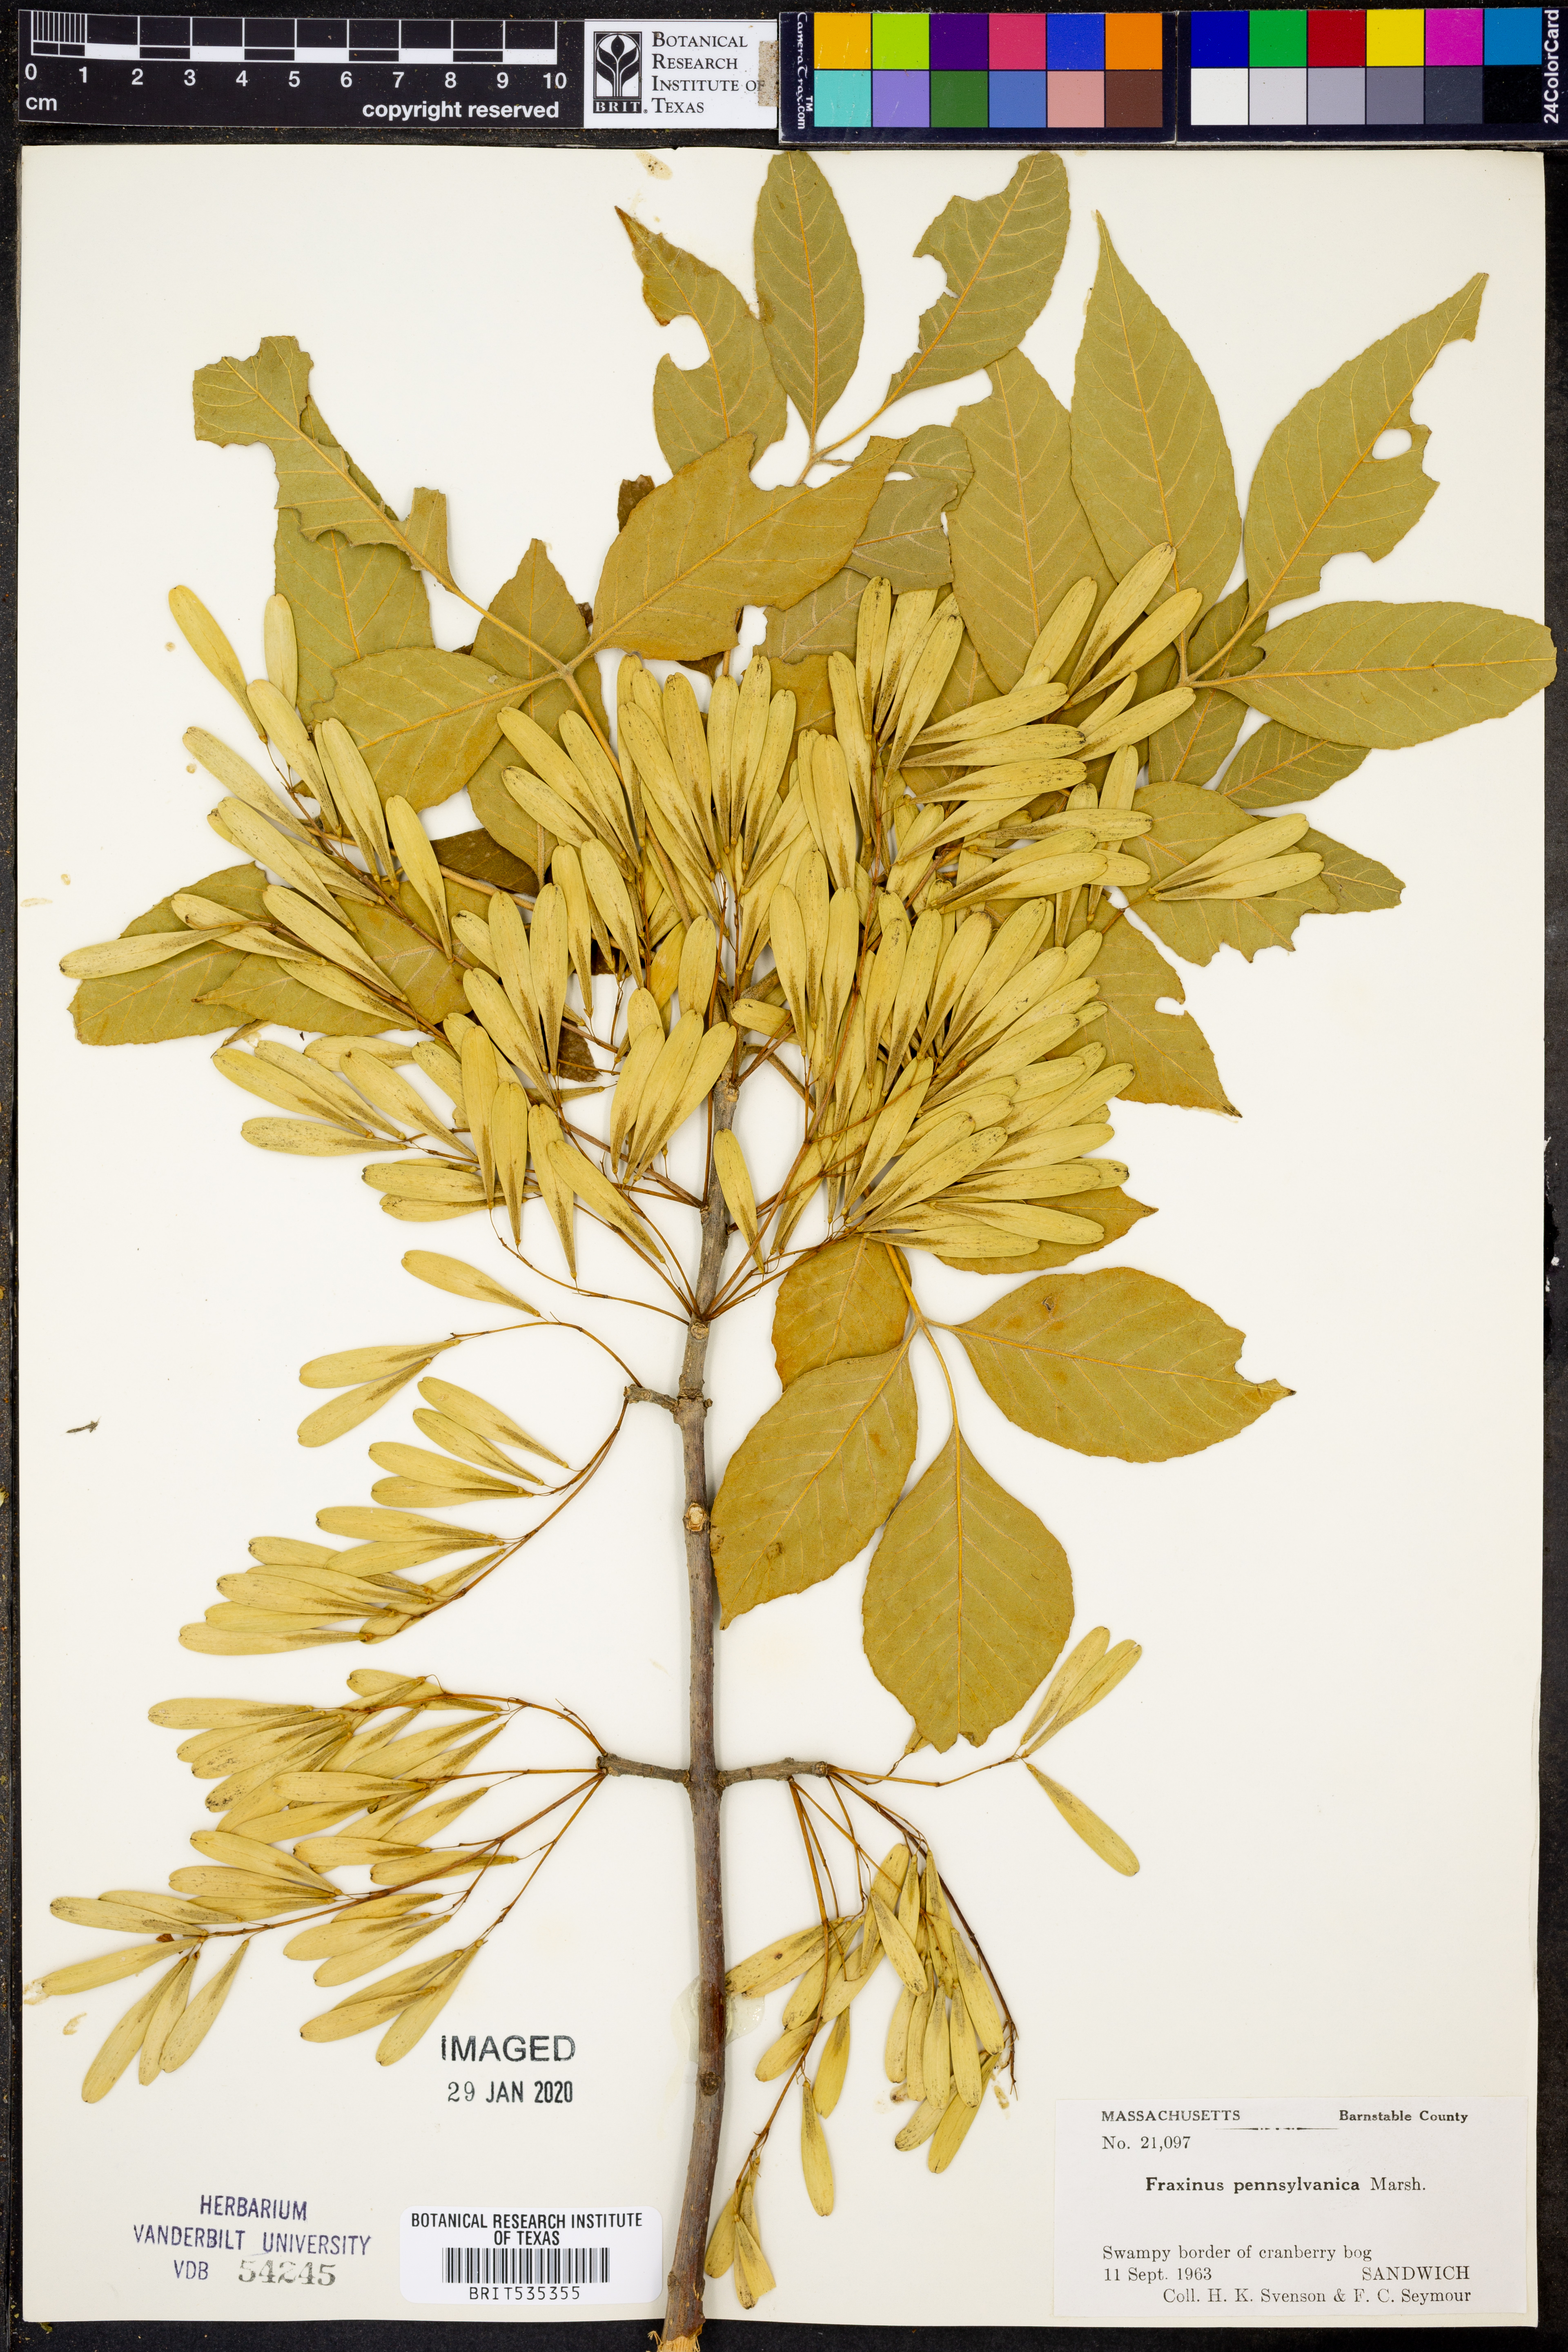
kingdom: Plantae
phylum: Tracheophyta
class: Magnoliopsida
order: Lamiales
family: Oleaceae
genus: Fraxinus
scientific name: Fraxinus pennsylvanica
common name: Green ash
